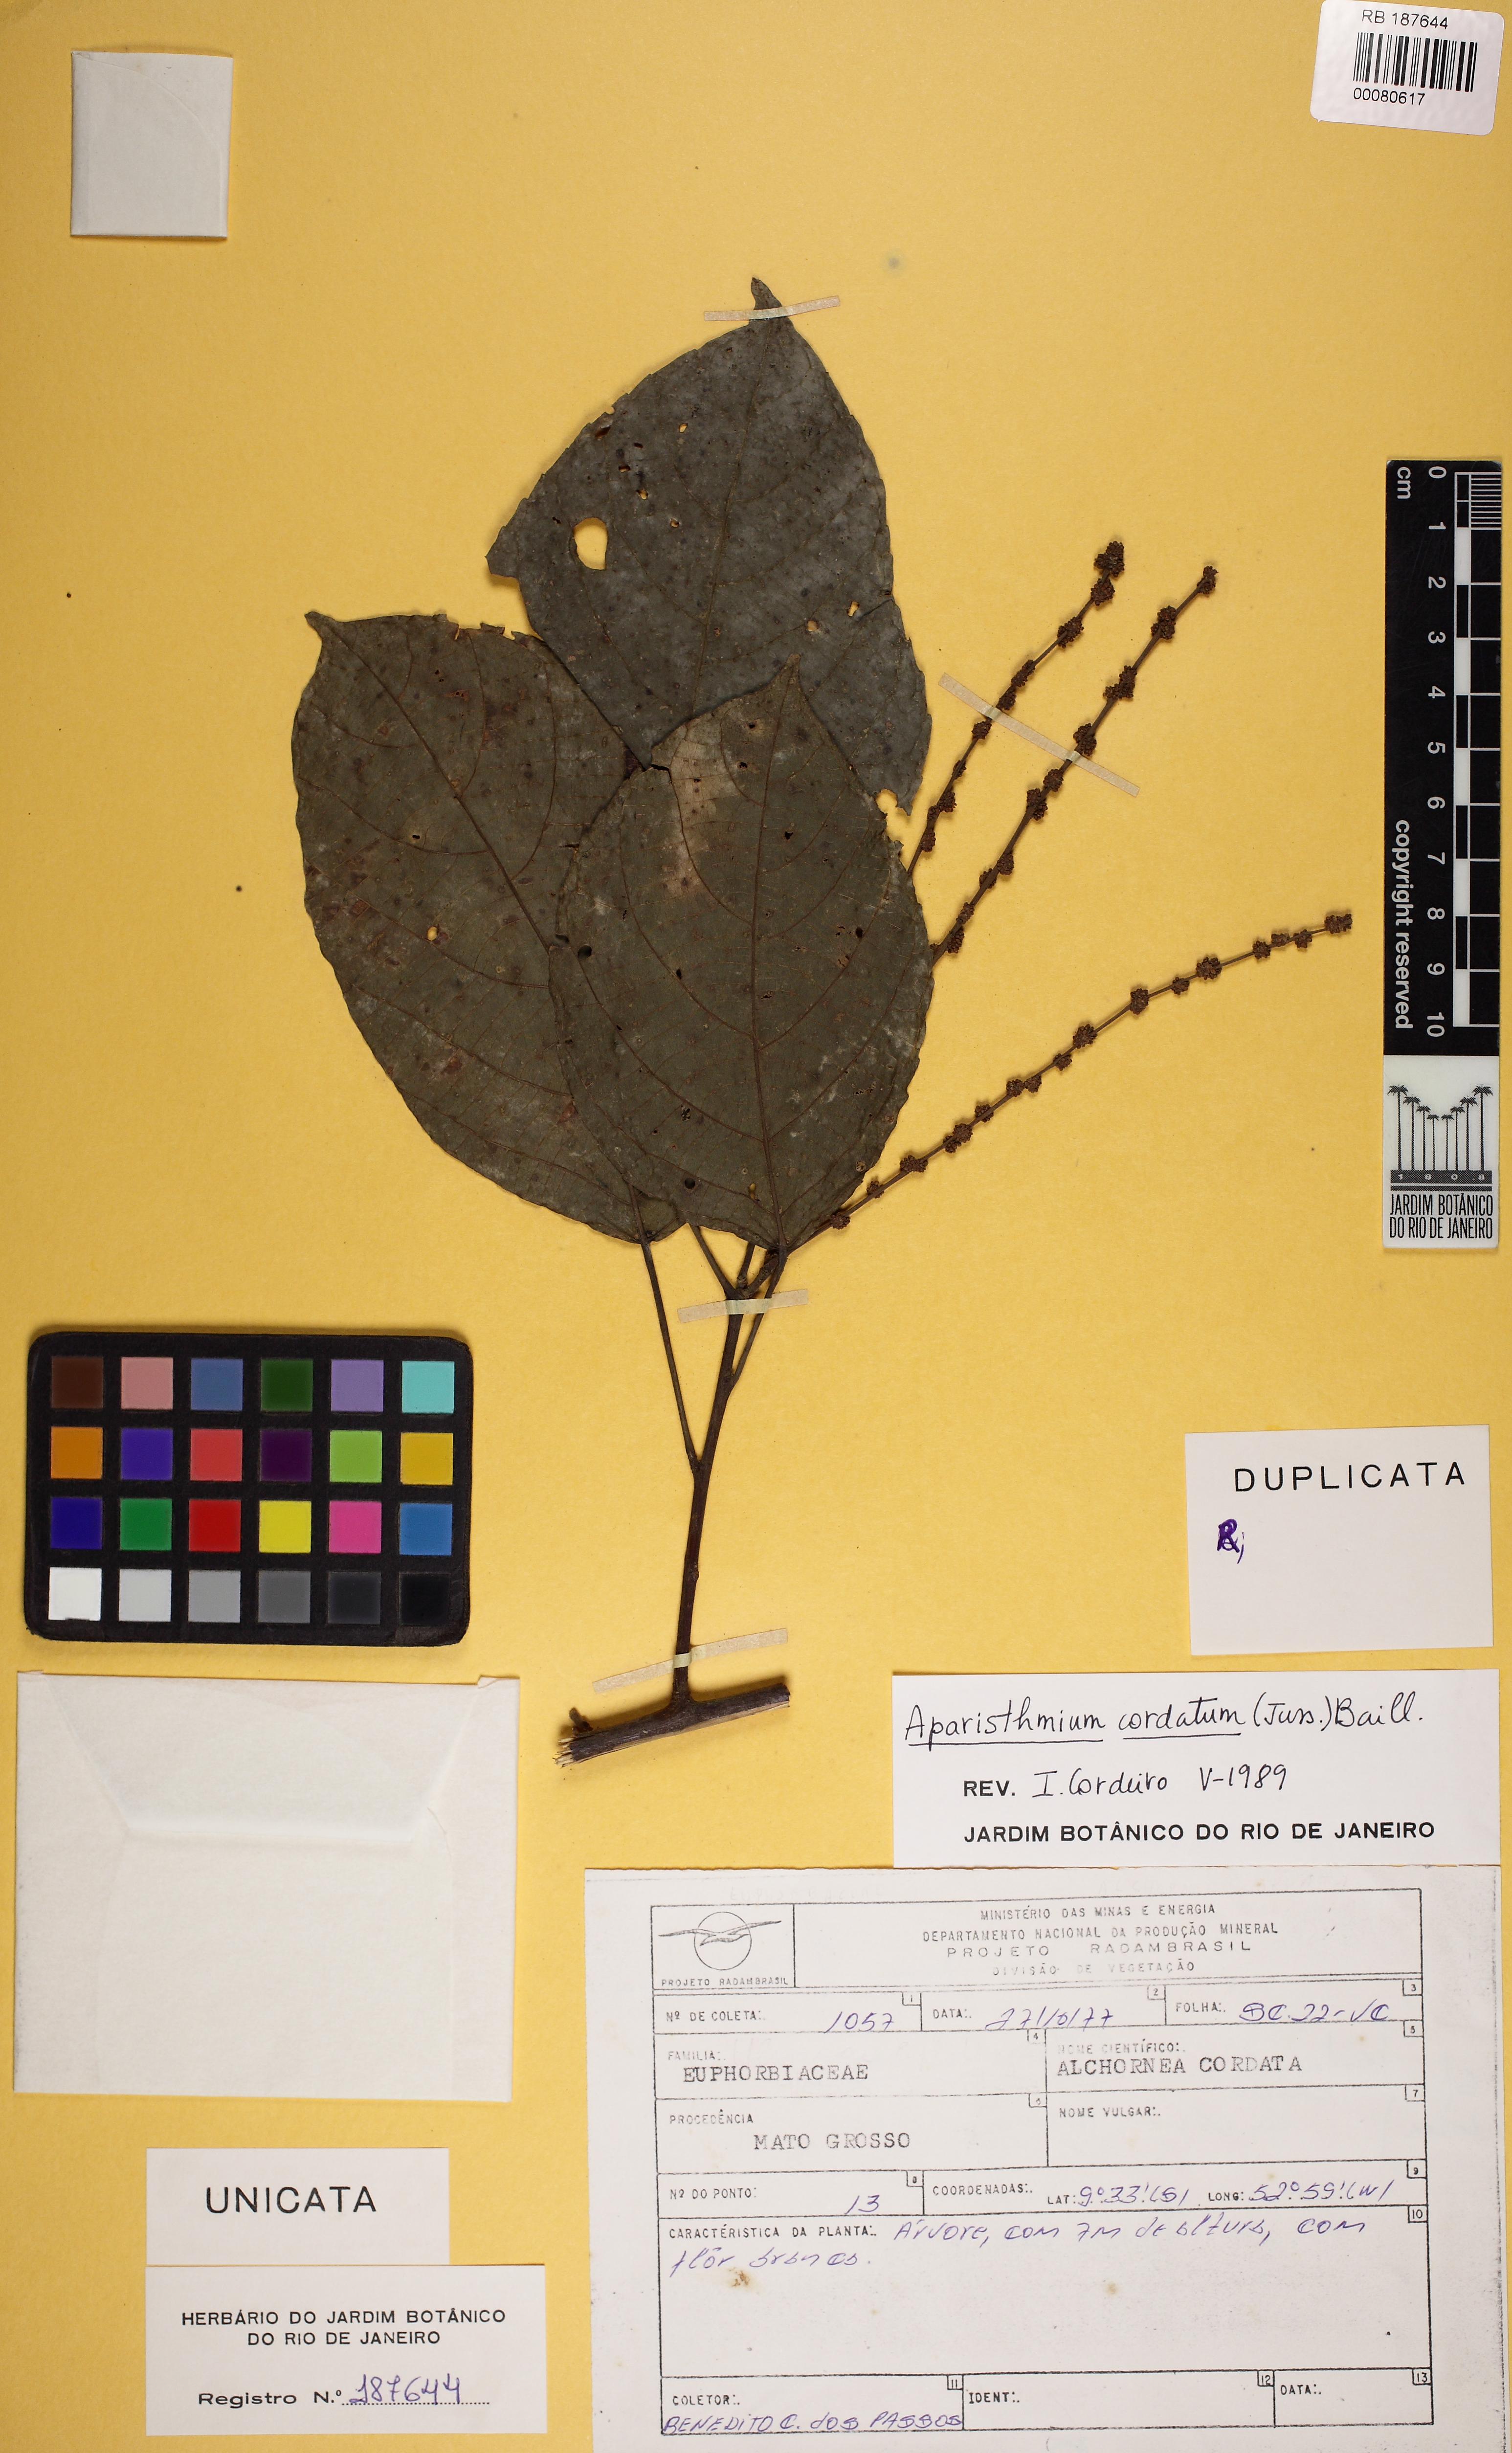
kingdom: Plantae
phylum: Tracheophyta
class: Magnoliopsida
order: Malpighiales
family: Euphorbiaceae
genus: Aparisthmium
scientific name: Aparisthmium cordatum
